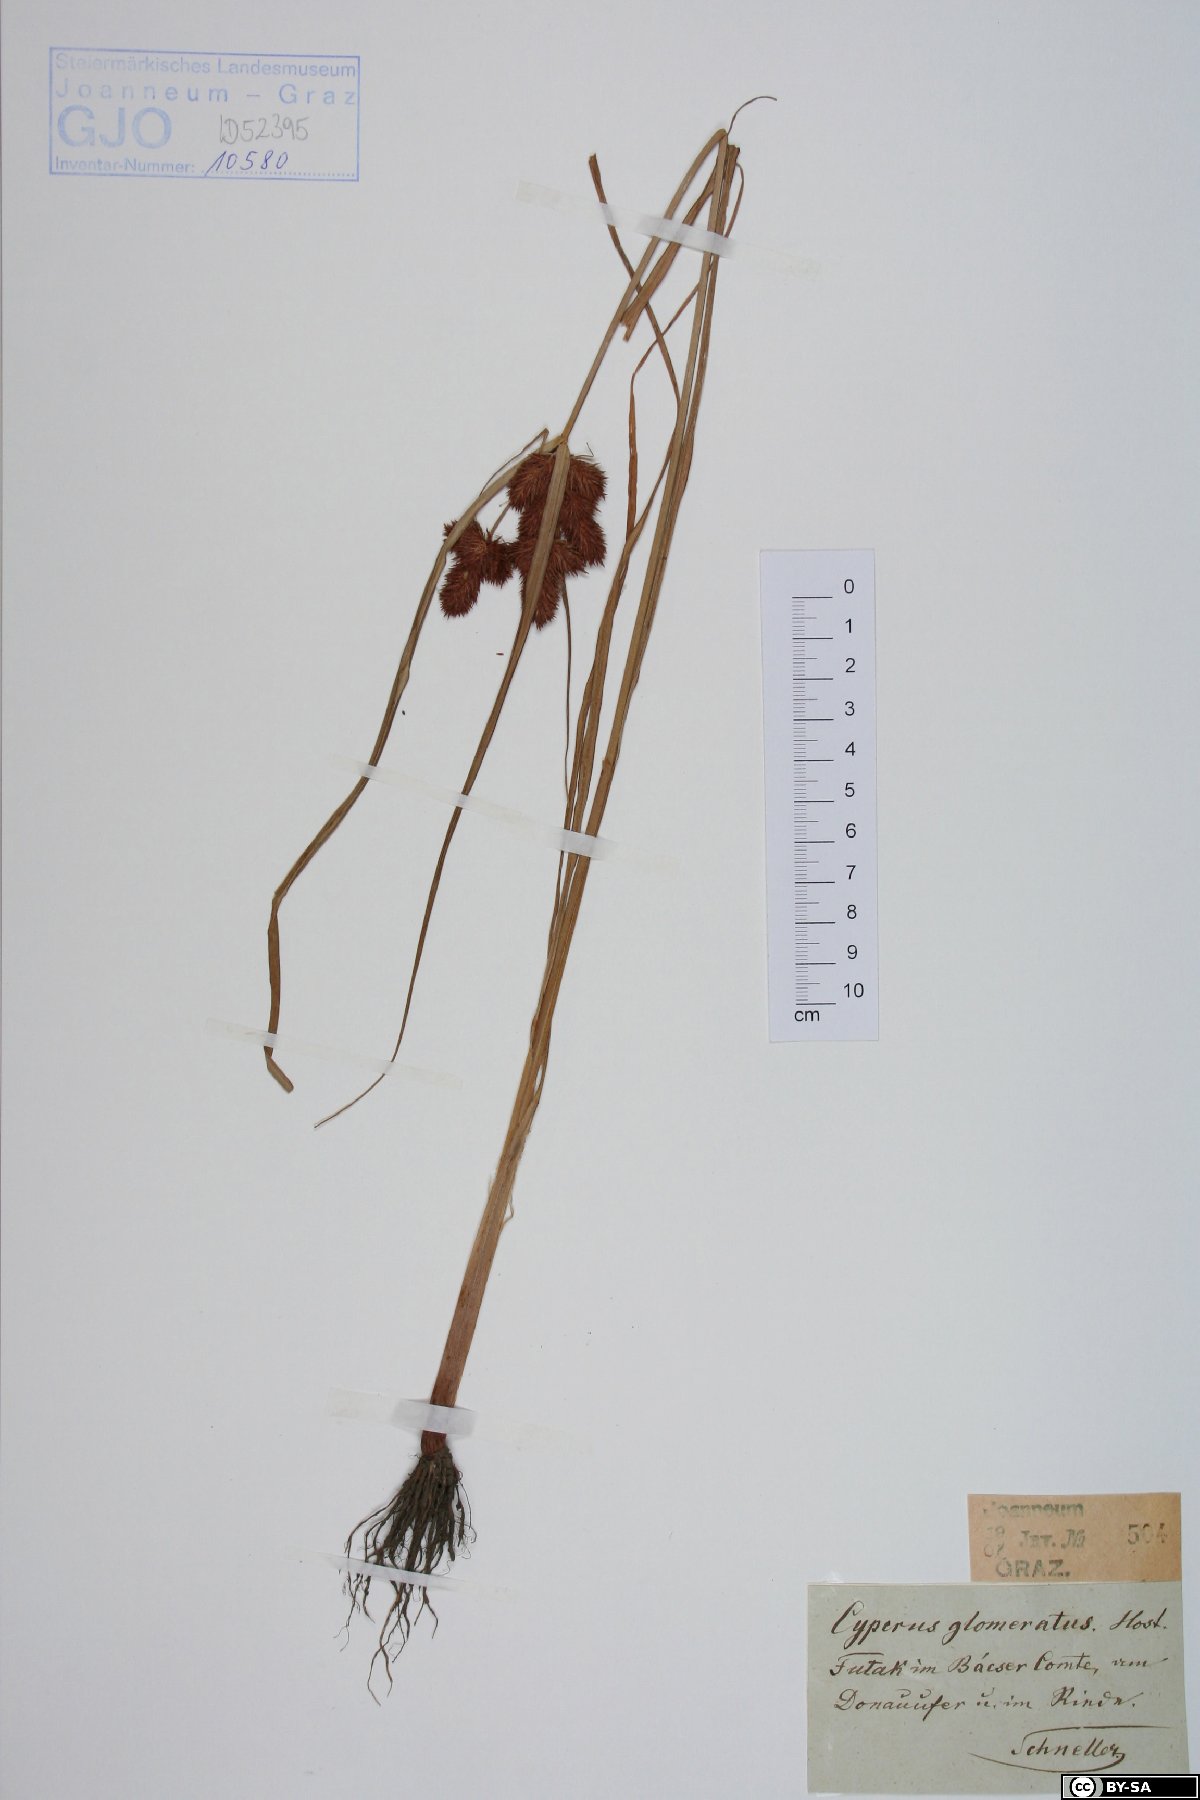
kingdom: Plantae
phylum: Tracheophyta
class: Liliopsida
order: Poales
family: Cyperaceae
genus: Cyperus
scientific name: Cyperus glomeratus
